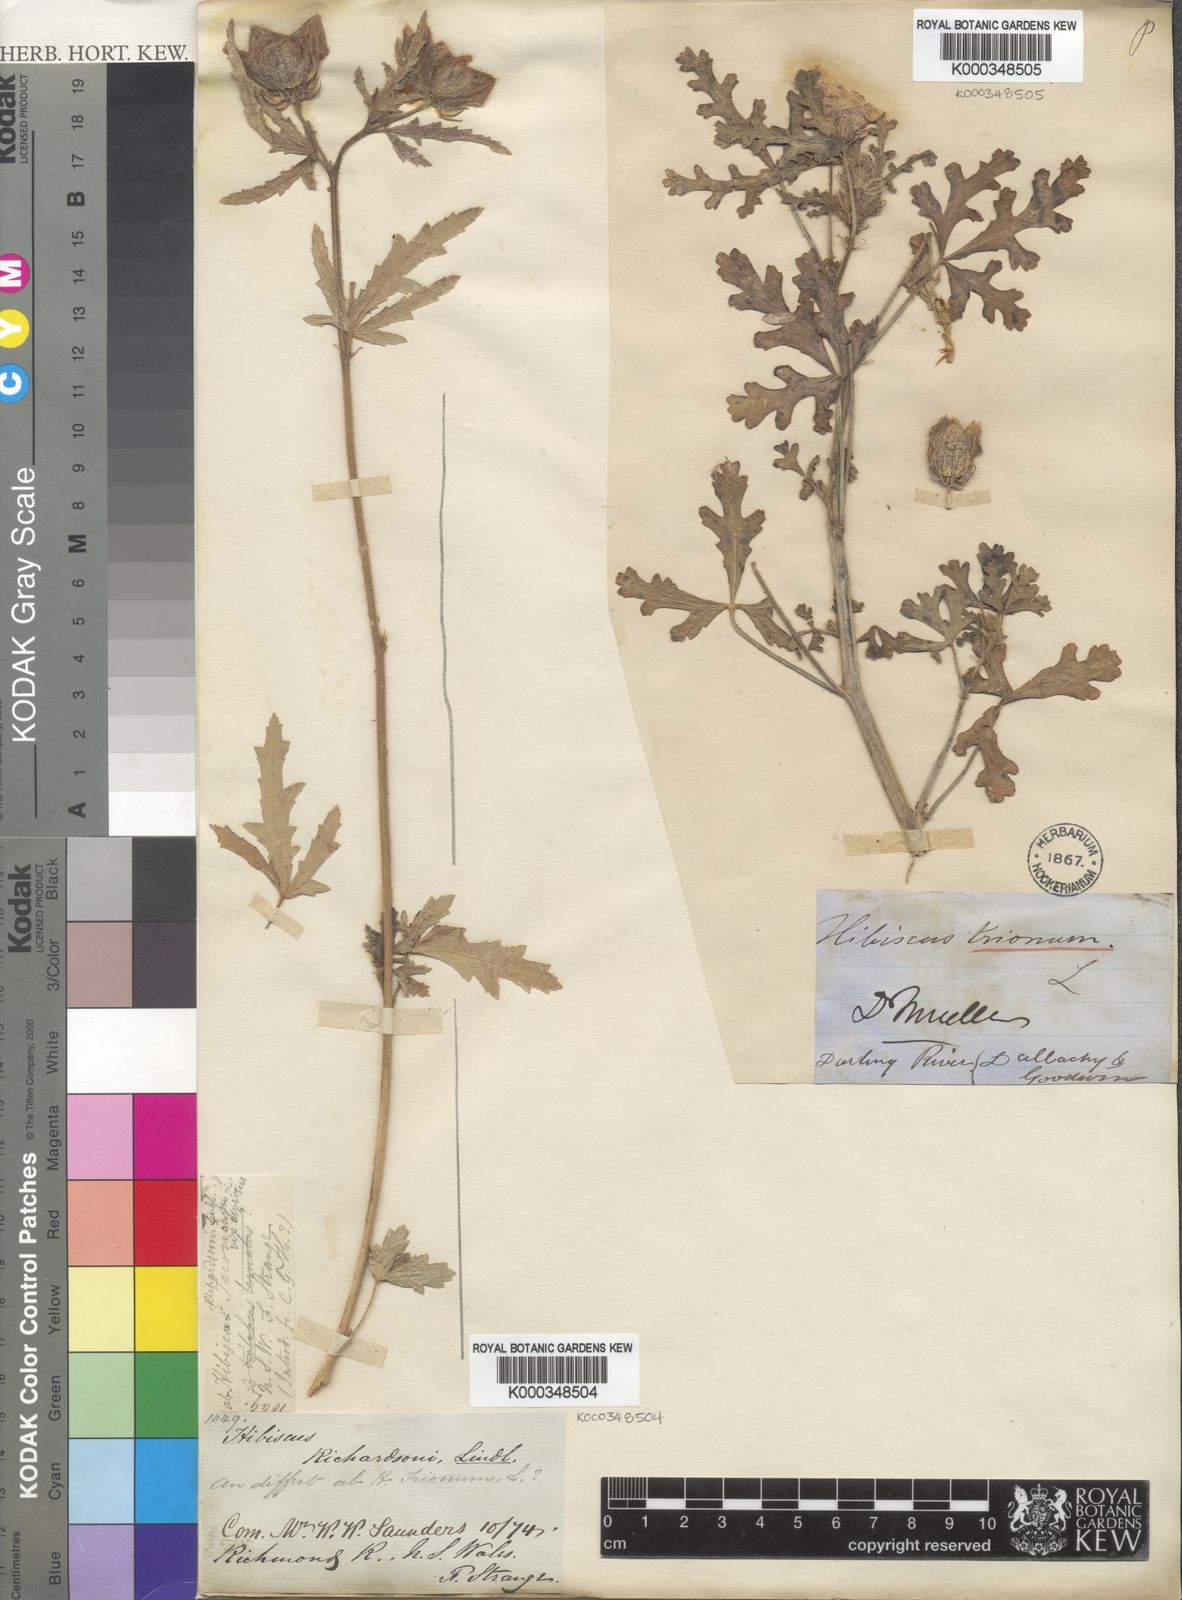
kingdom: Plantae
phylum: Tracheophyta
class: Magnoliopsida
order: Malvales
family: Malvaceae
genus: Hibiscus
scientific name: Hibiscus trionum
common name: Bladder ketmia
